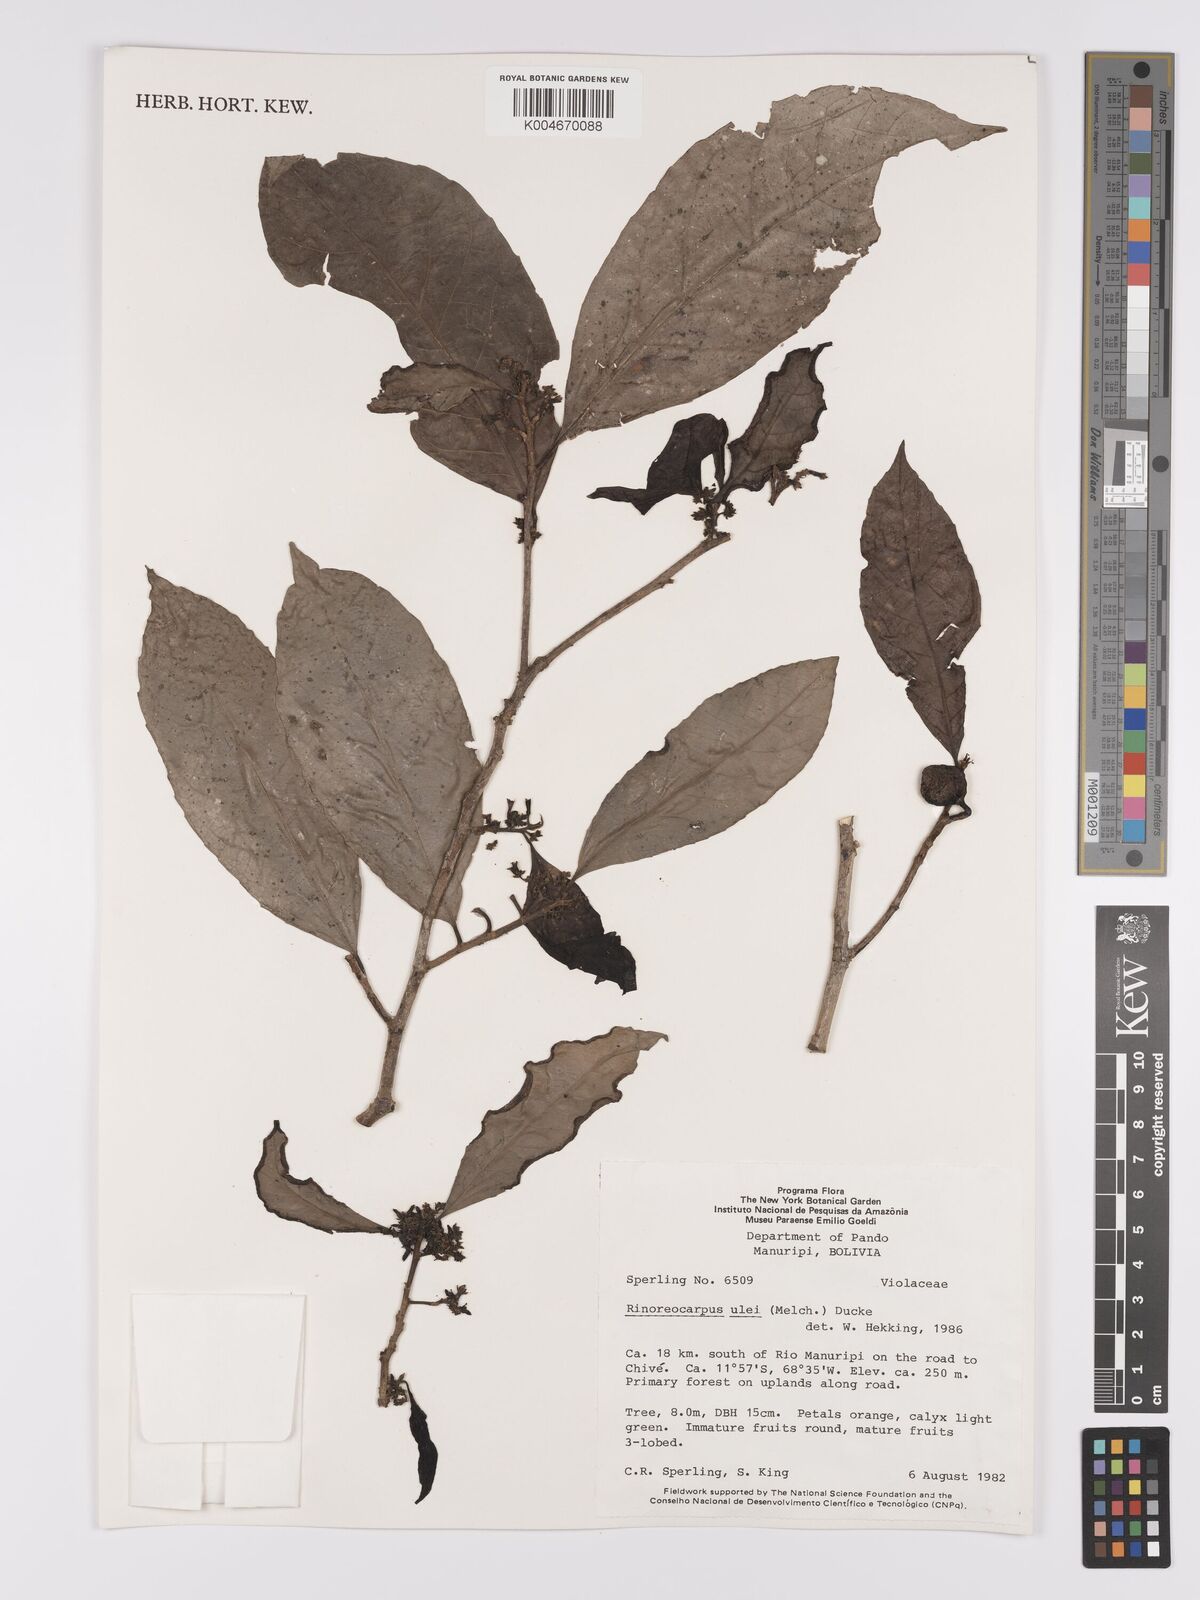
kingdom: Plantae
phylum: Tracheophyta
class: Magnoliopsida
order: Malpighiales
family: Violaceae
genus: Rinoreocarpus
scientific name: Rinoreocarpus ulei
